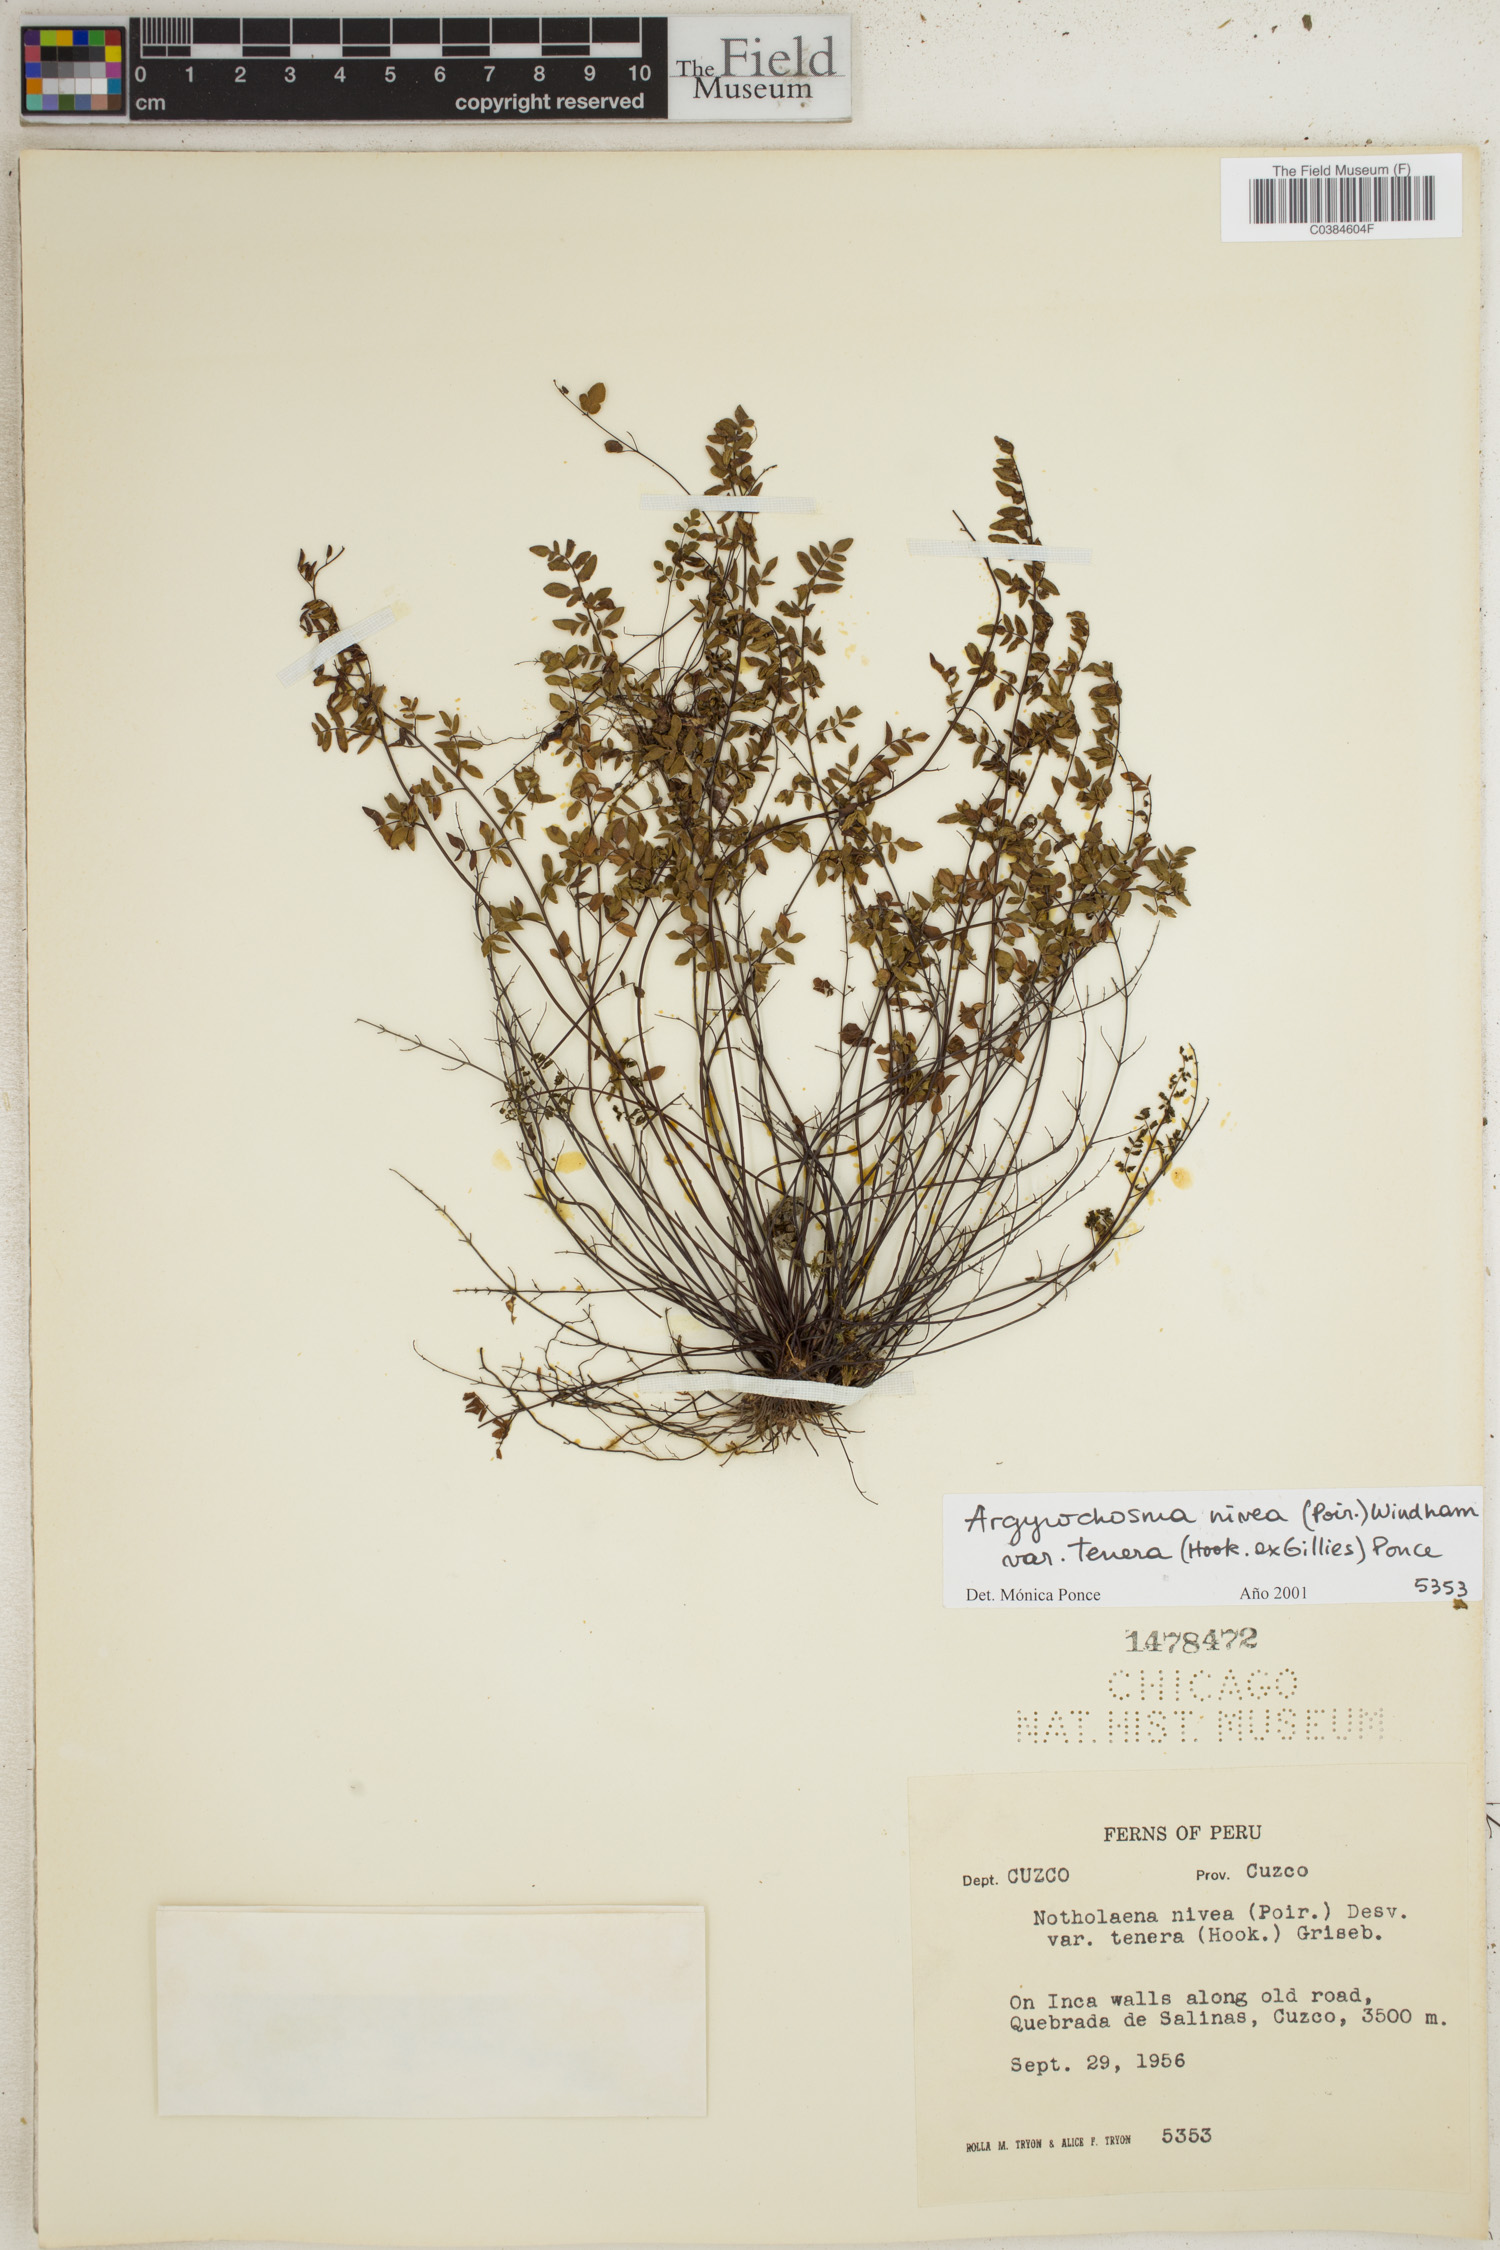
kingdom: Plantae
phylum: Tracheophyta
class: Polypodiopsida
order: Polypodiales
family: Pteridaceae
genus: Argyrochosma
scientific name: Argyrochosma nivea
